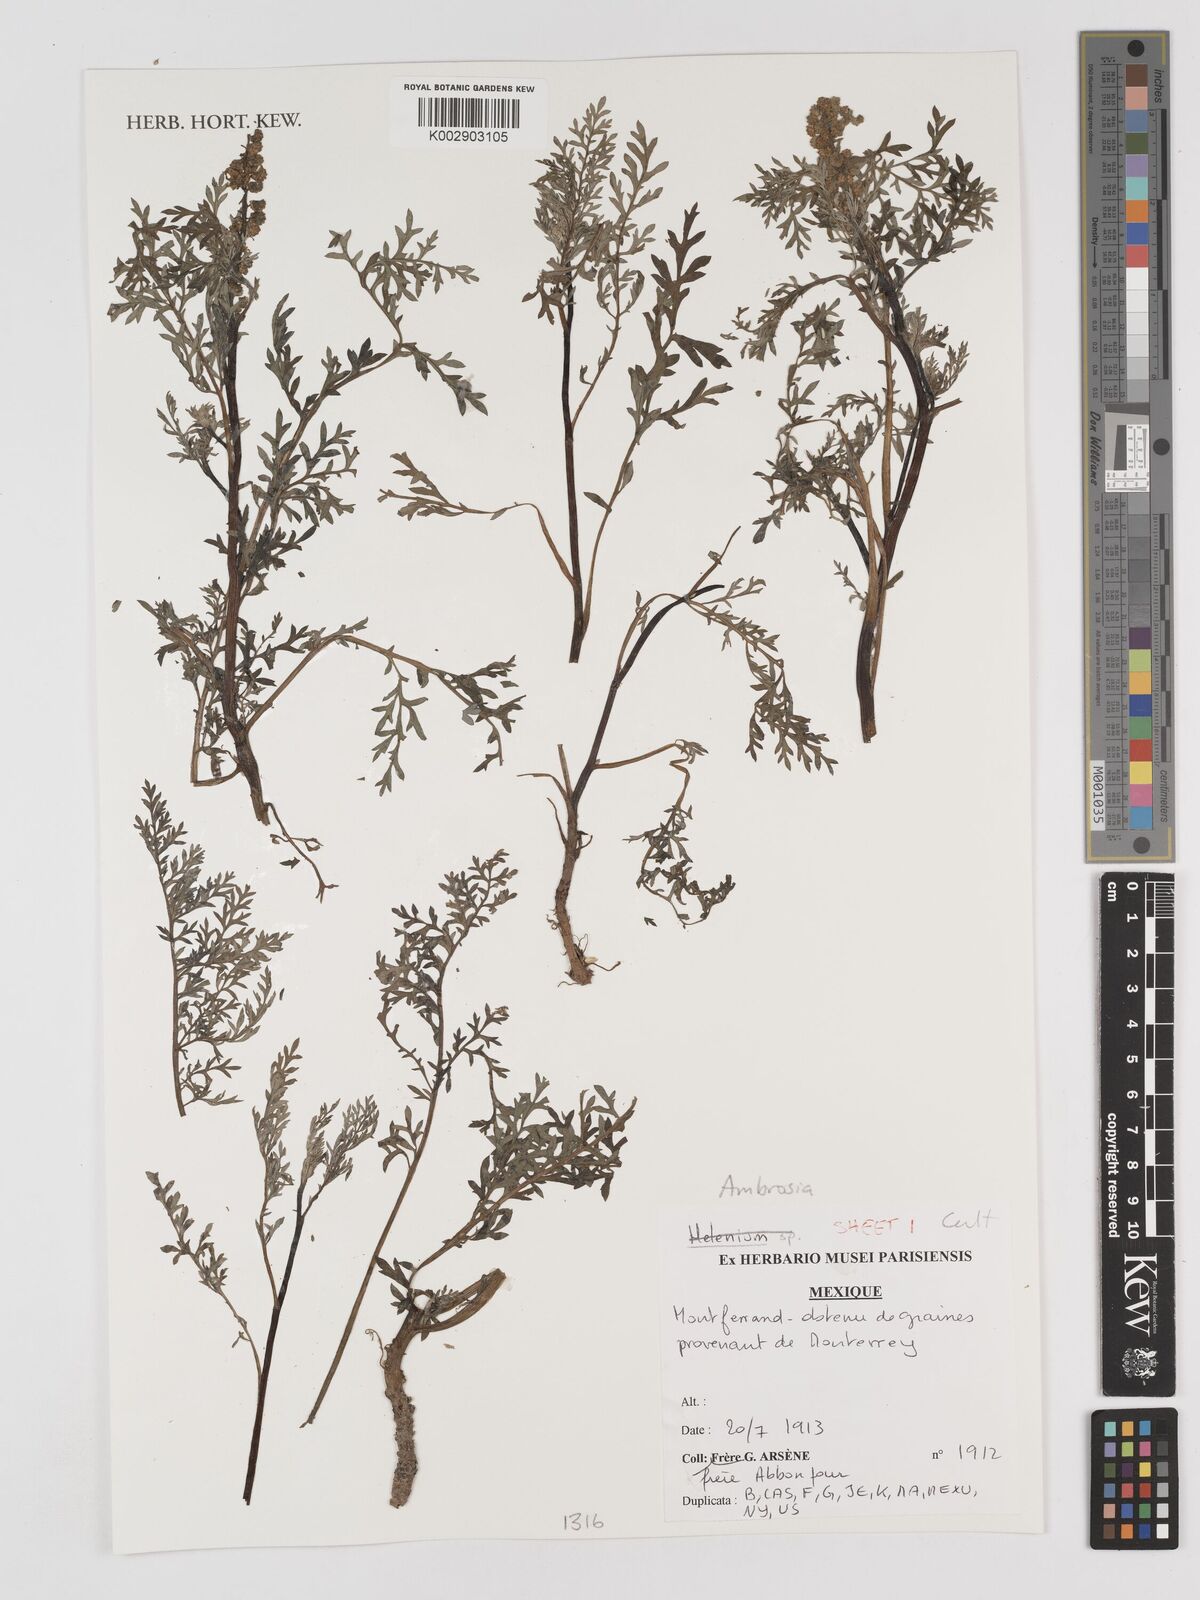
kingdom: Plantae
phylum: Tracheophyta
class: Magnoliopsida
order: Asterales
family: Asteraceae
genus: Ambrosia
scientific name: Ambrosia
